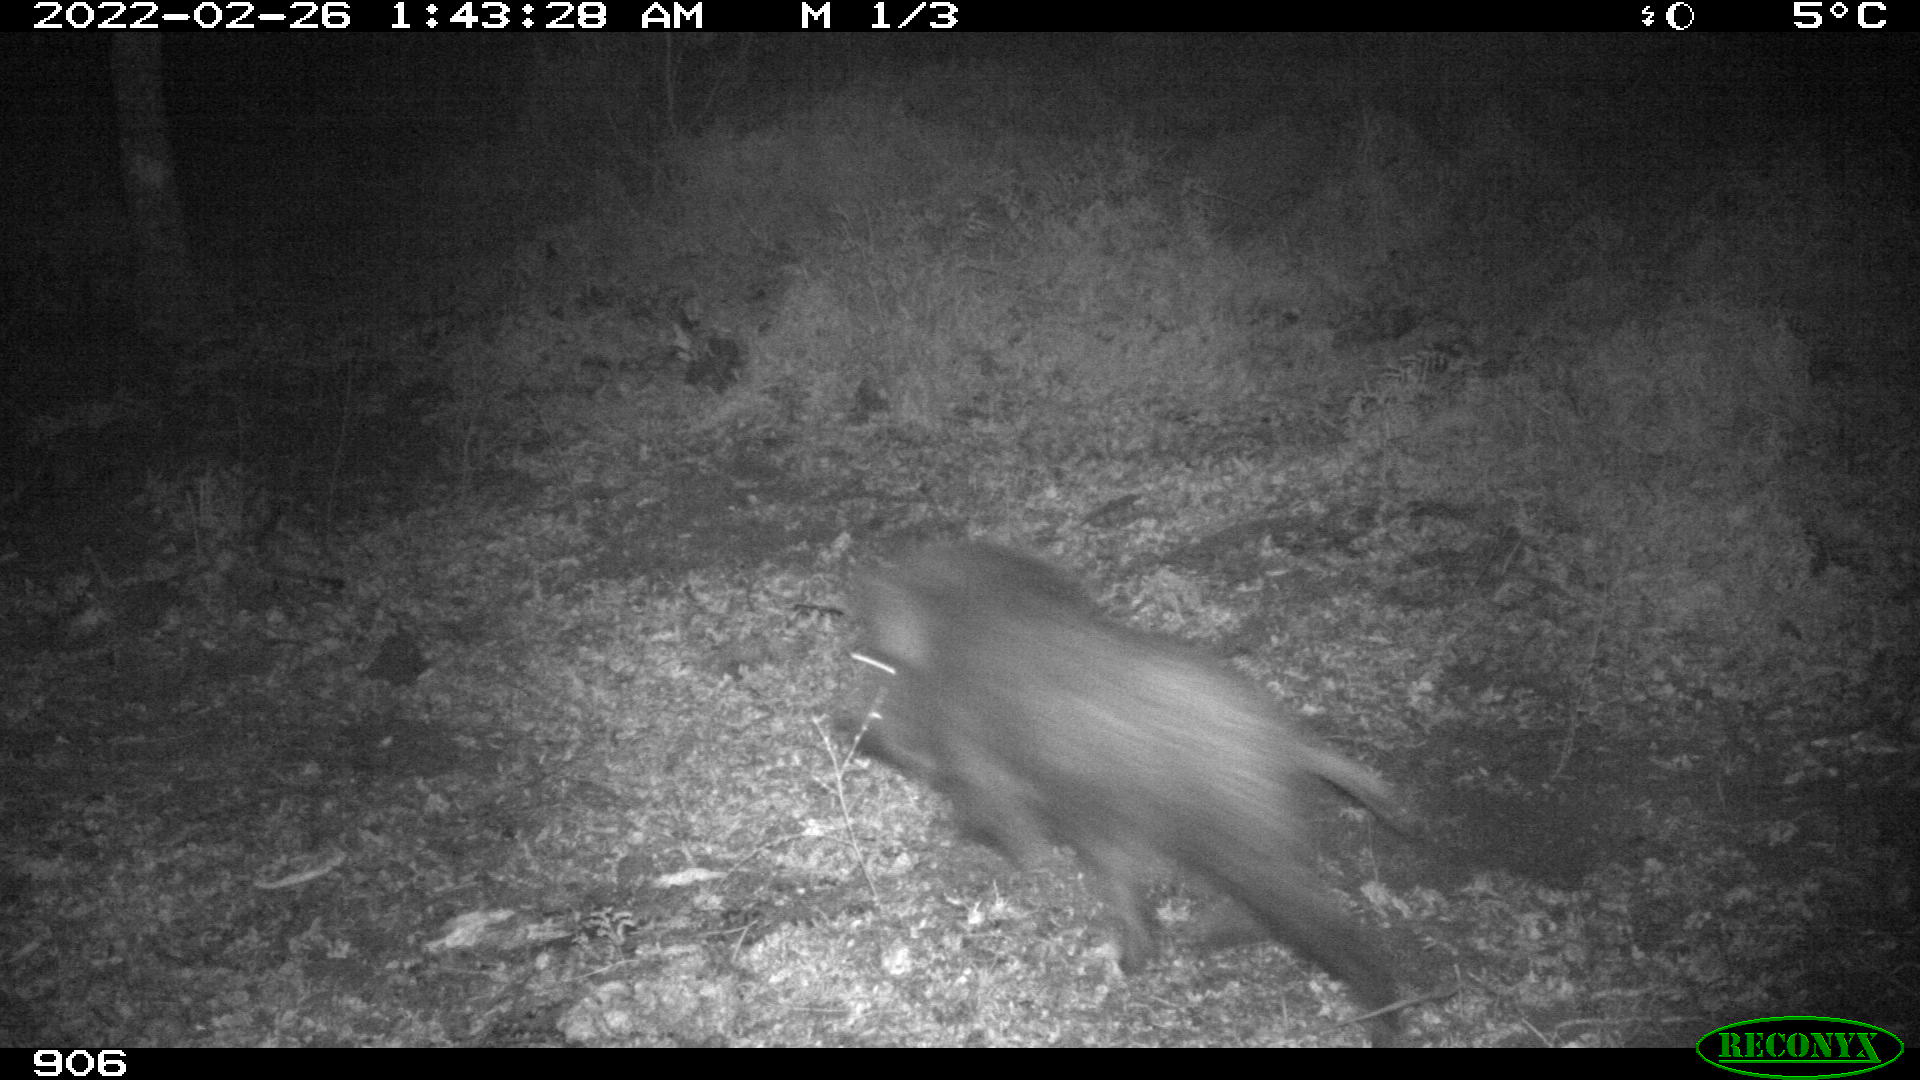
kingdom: Animalia
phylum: Chordata
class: Mammalia
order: Artiodactyla
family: Suidae
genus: Sus
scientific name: Sus scrofa
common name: Wild boar
